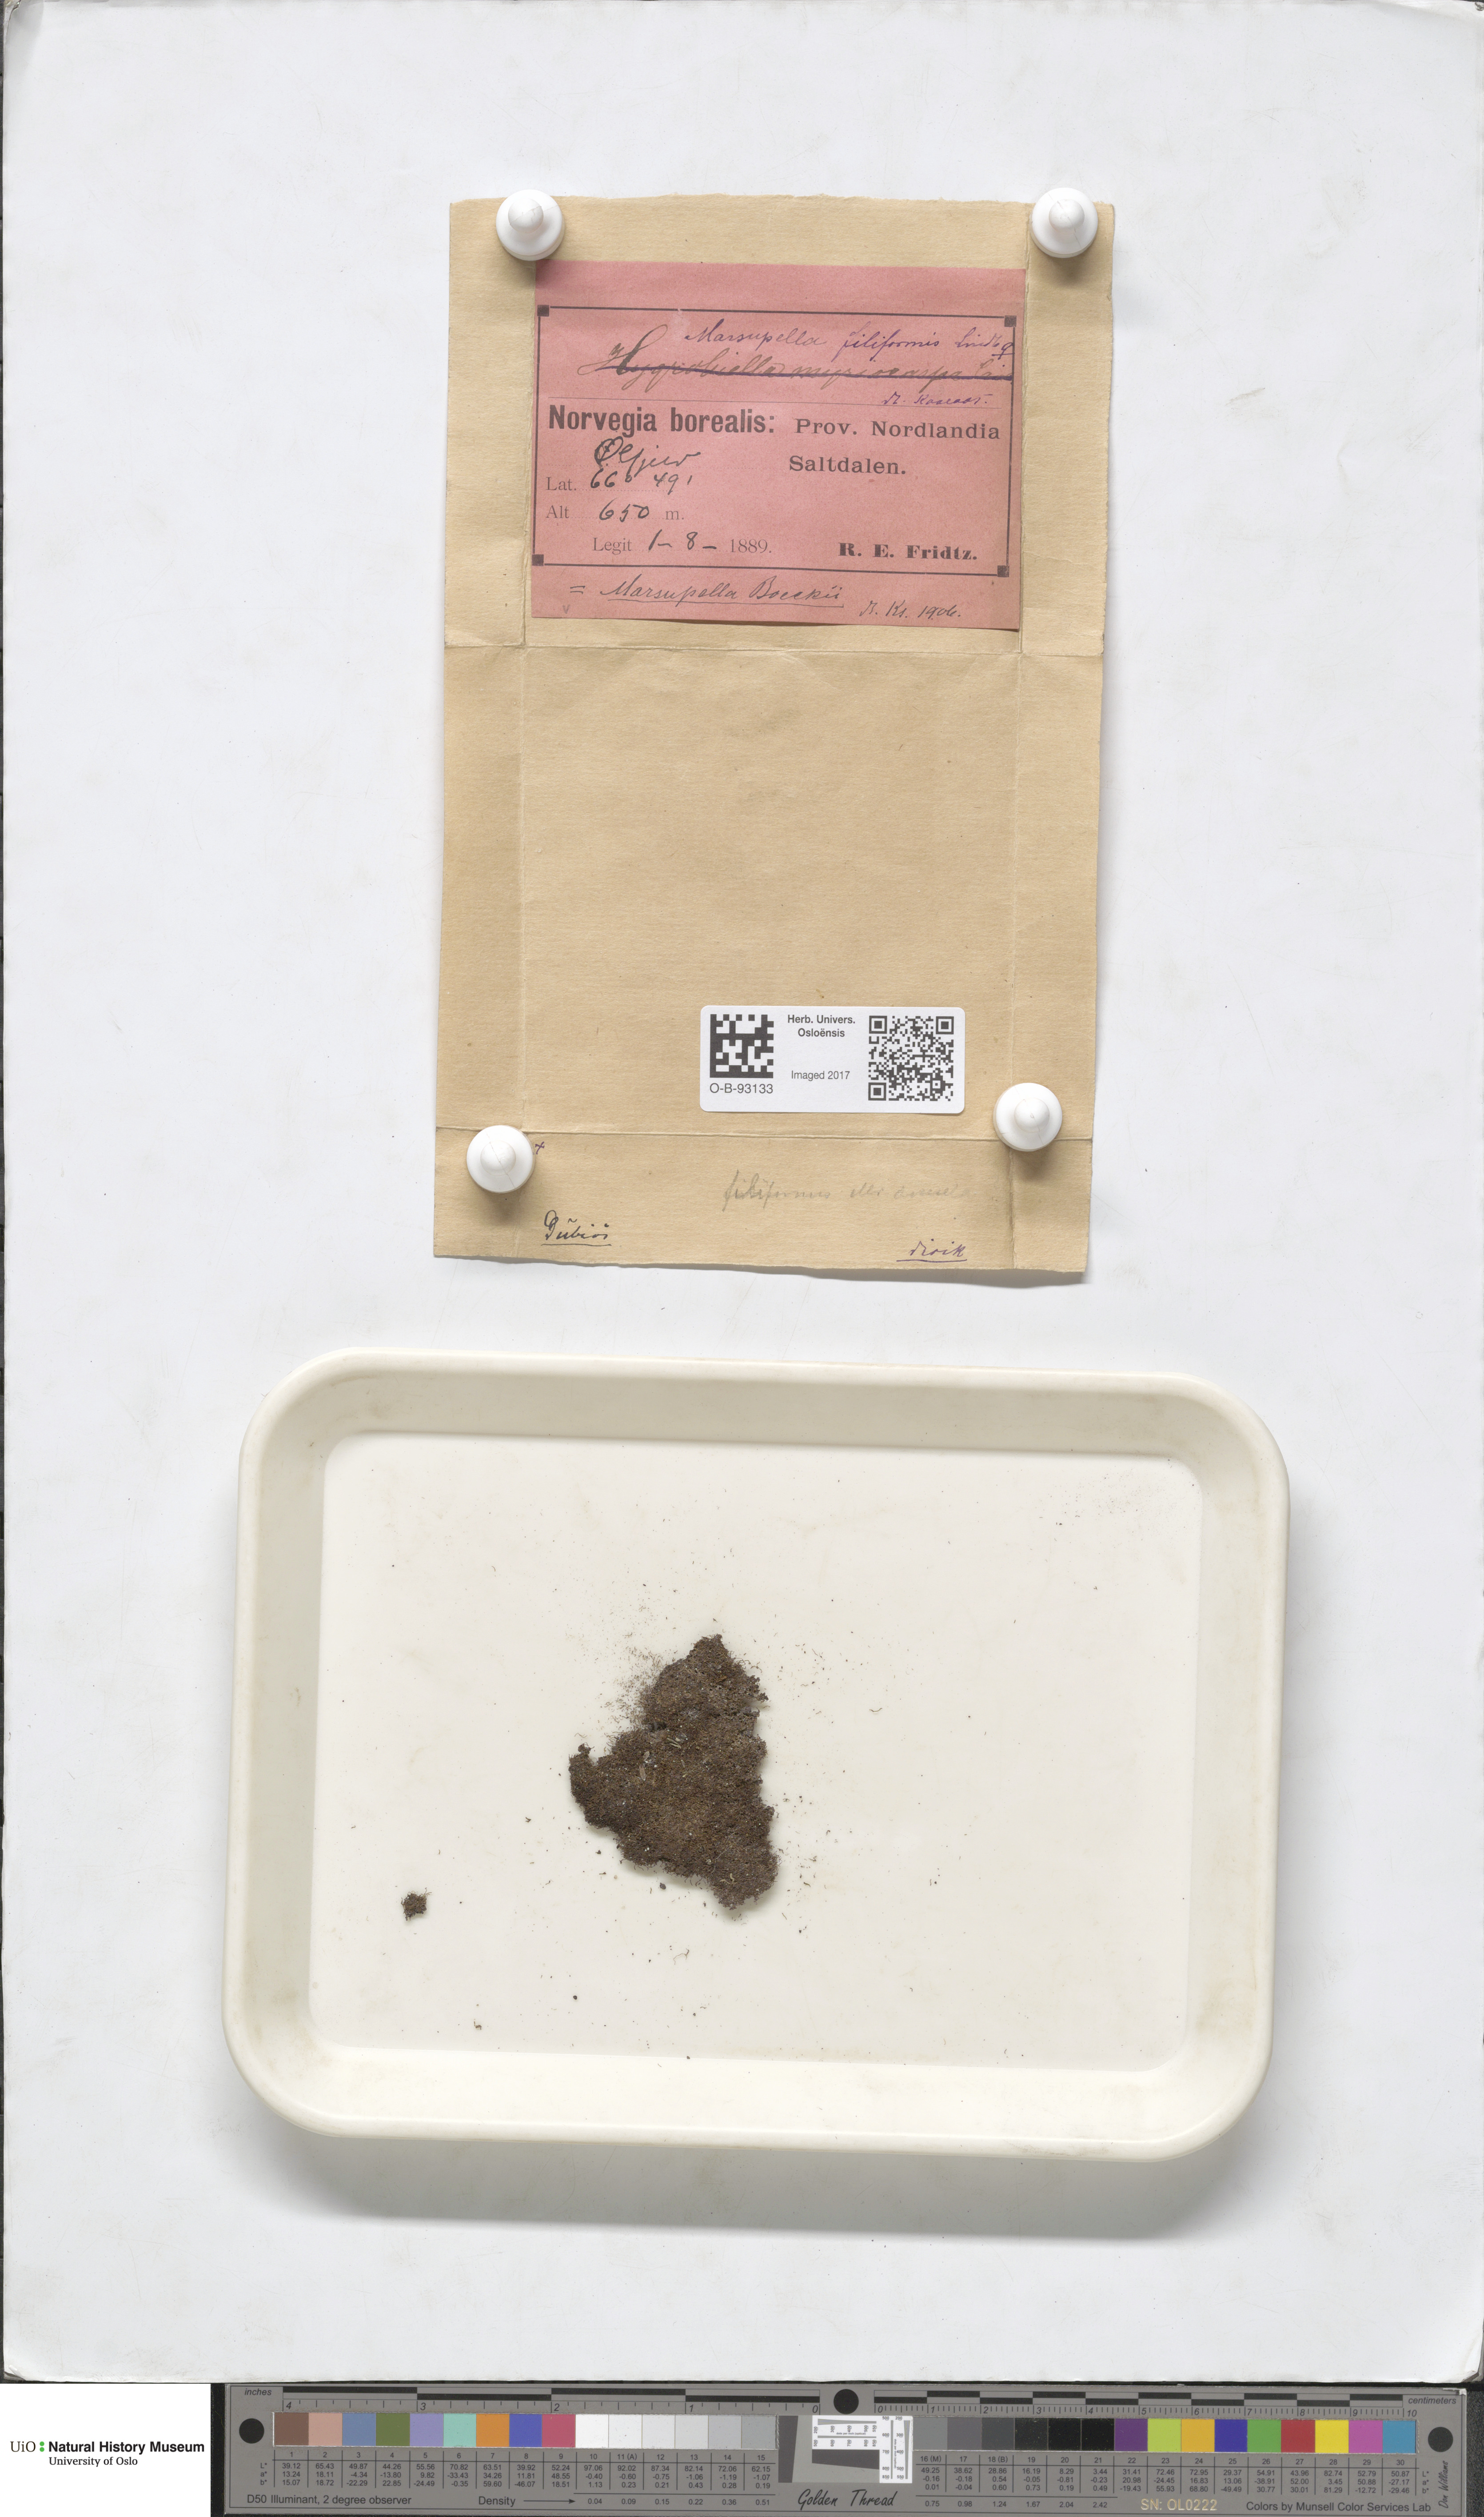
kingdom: Plantae
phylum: Marchantiophyta
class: Jungermanniopsida
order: Jungermanniales
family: Gymnomitriaceae
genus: Marsupella
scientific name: Marsupella boeckii
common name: Boeck s rustwort
